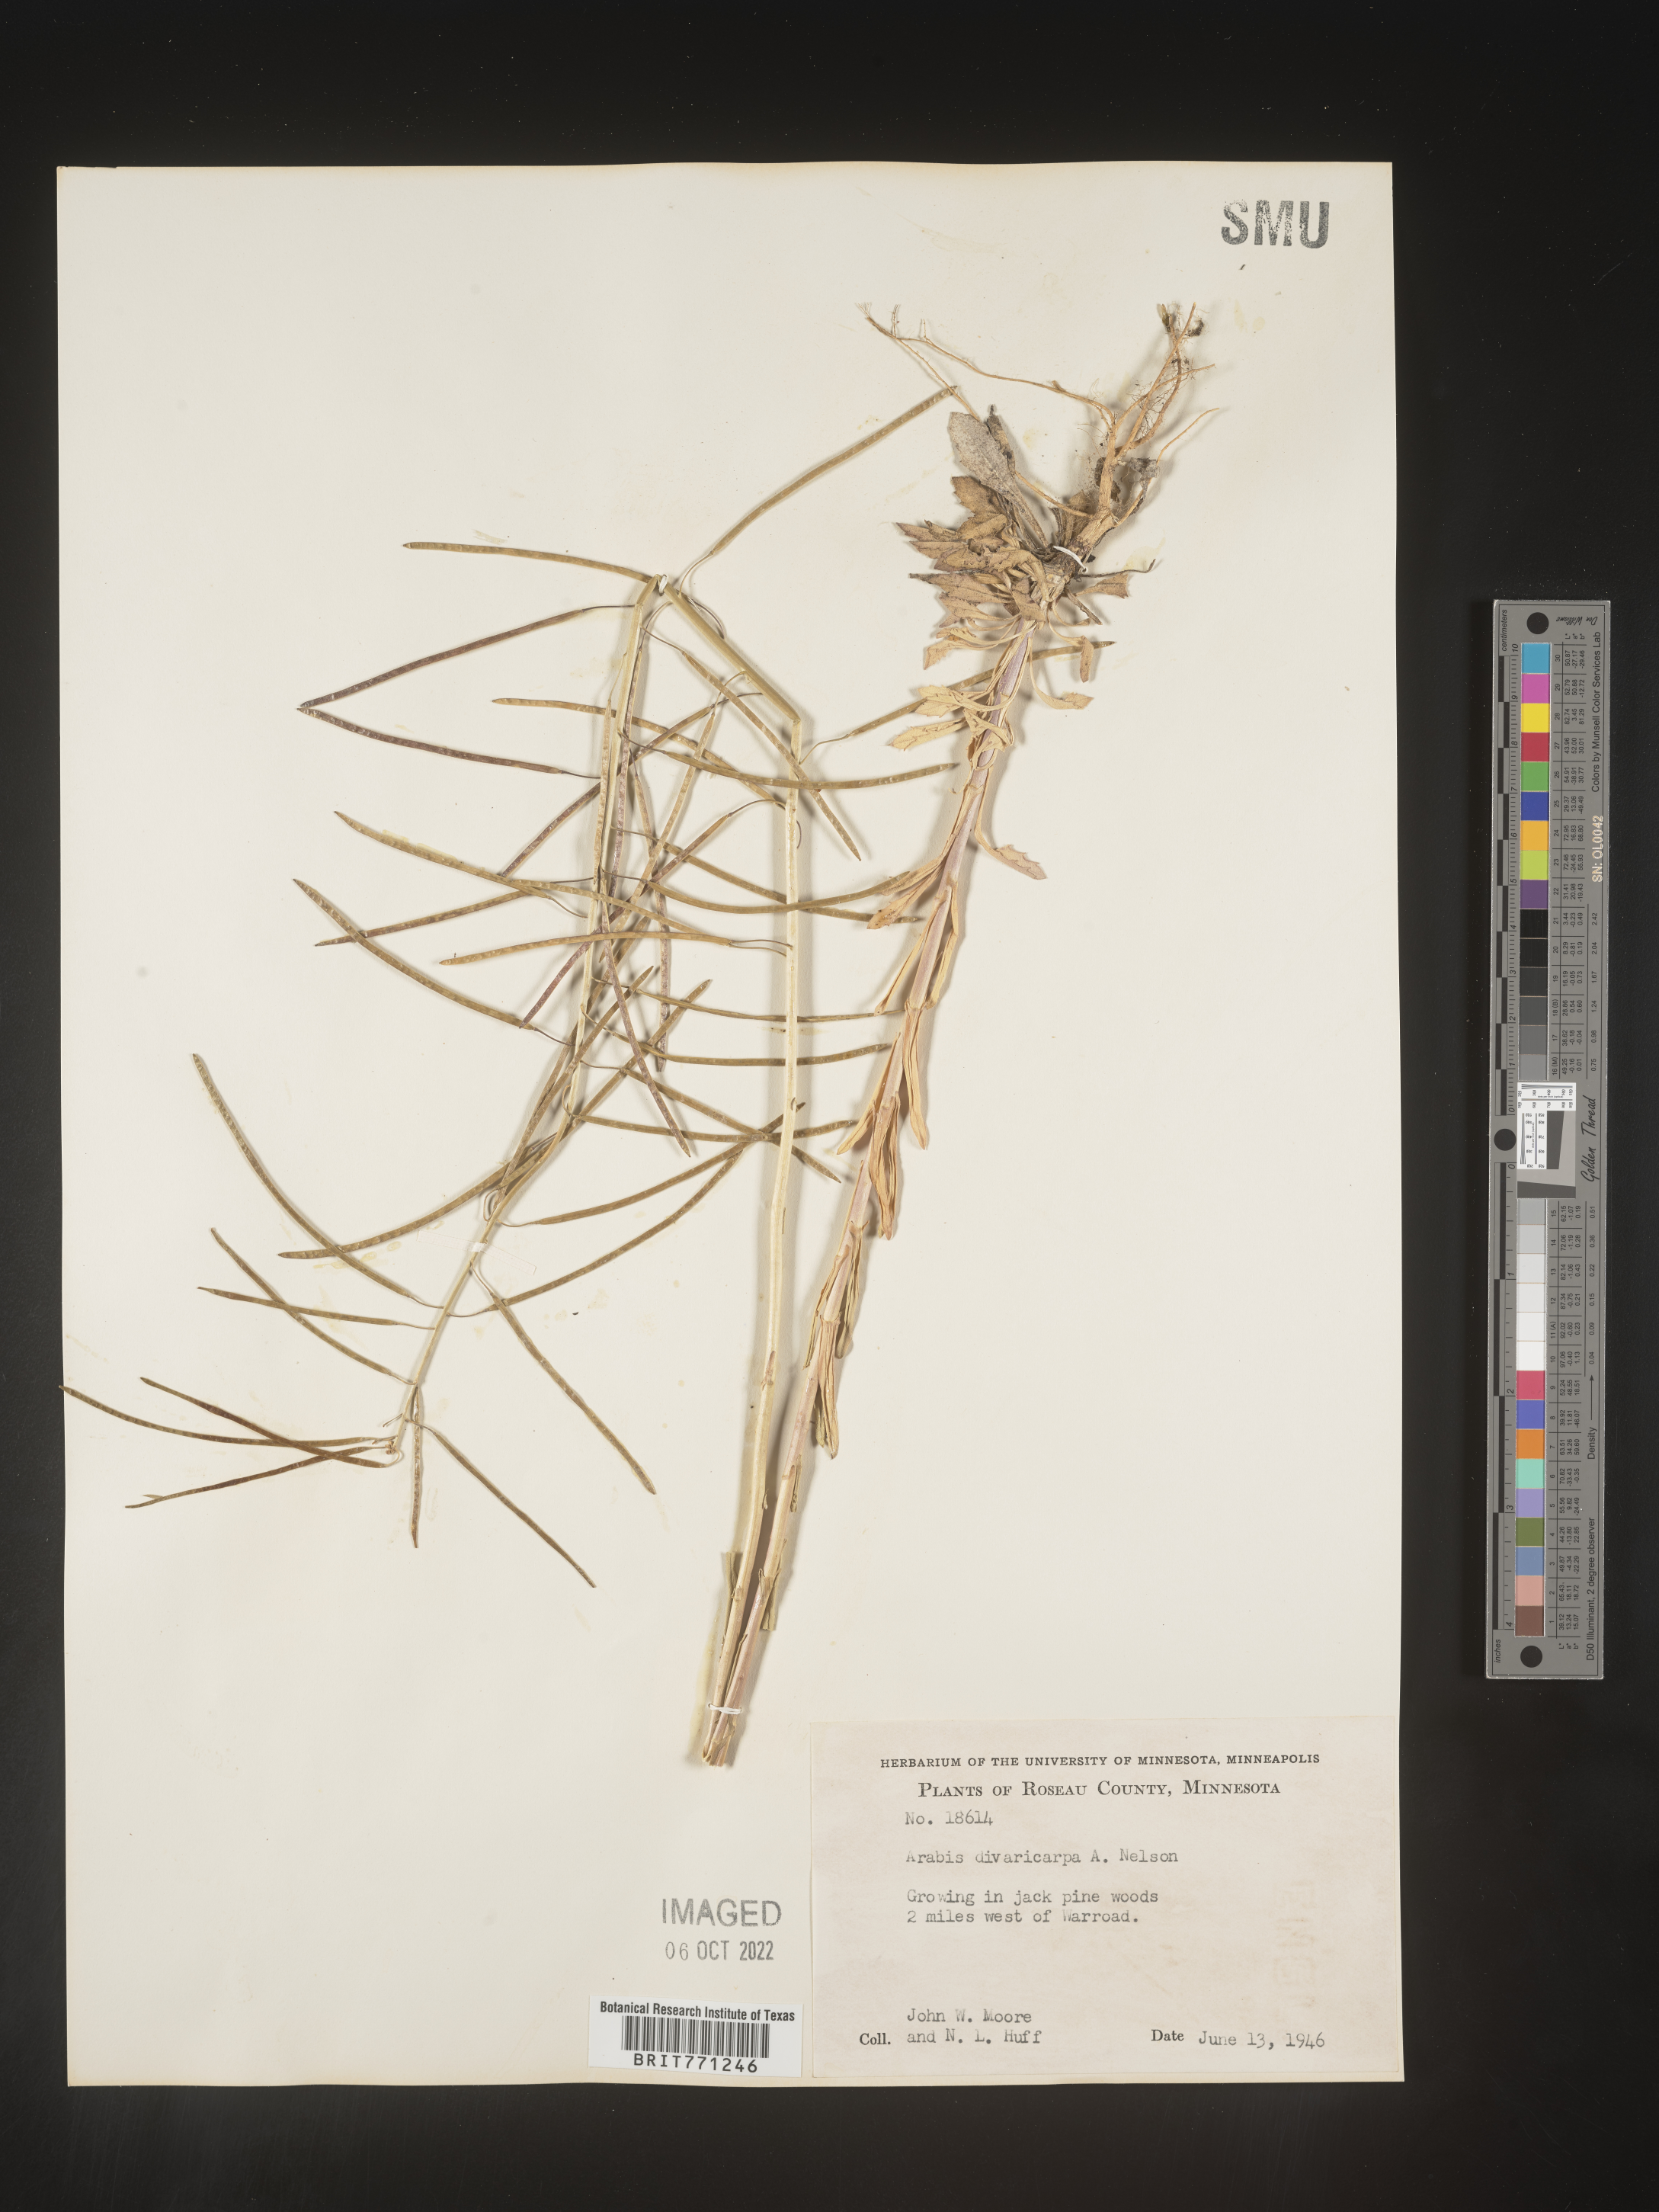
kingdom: Plantae
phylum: Tracheophyta
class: Magnoliopsida
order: Brassicales
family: Brassicaceae
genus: Boechera
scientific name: Boechera divaricarpa
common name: Divaricate rockcress
